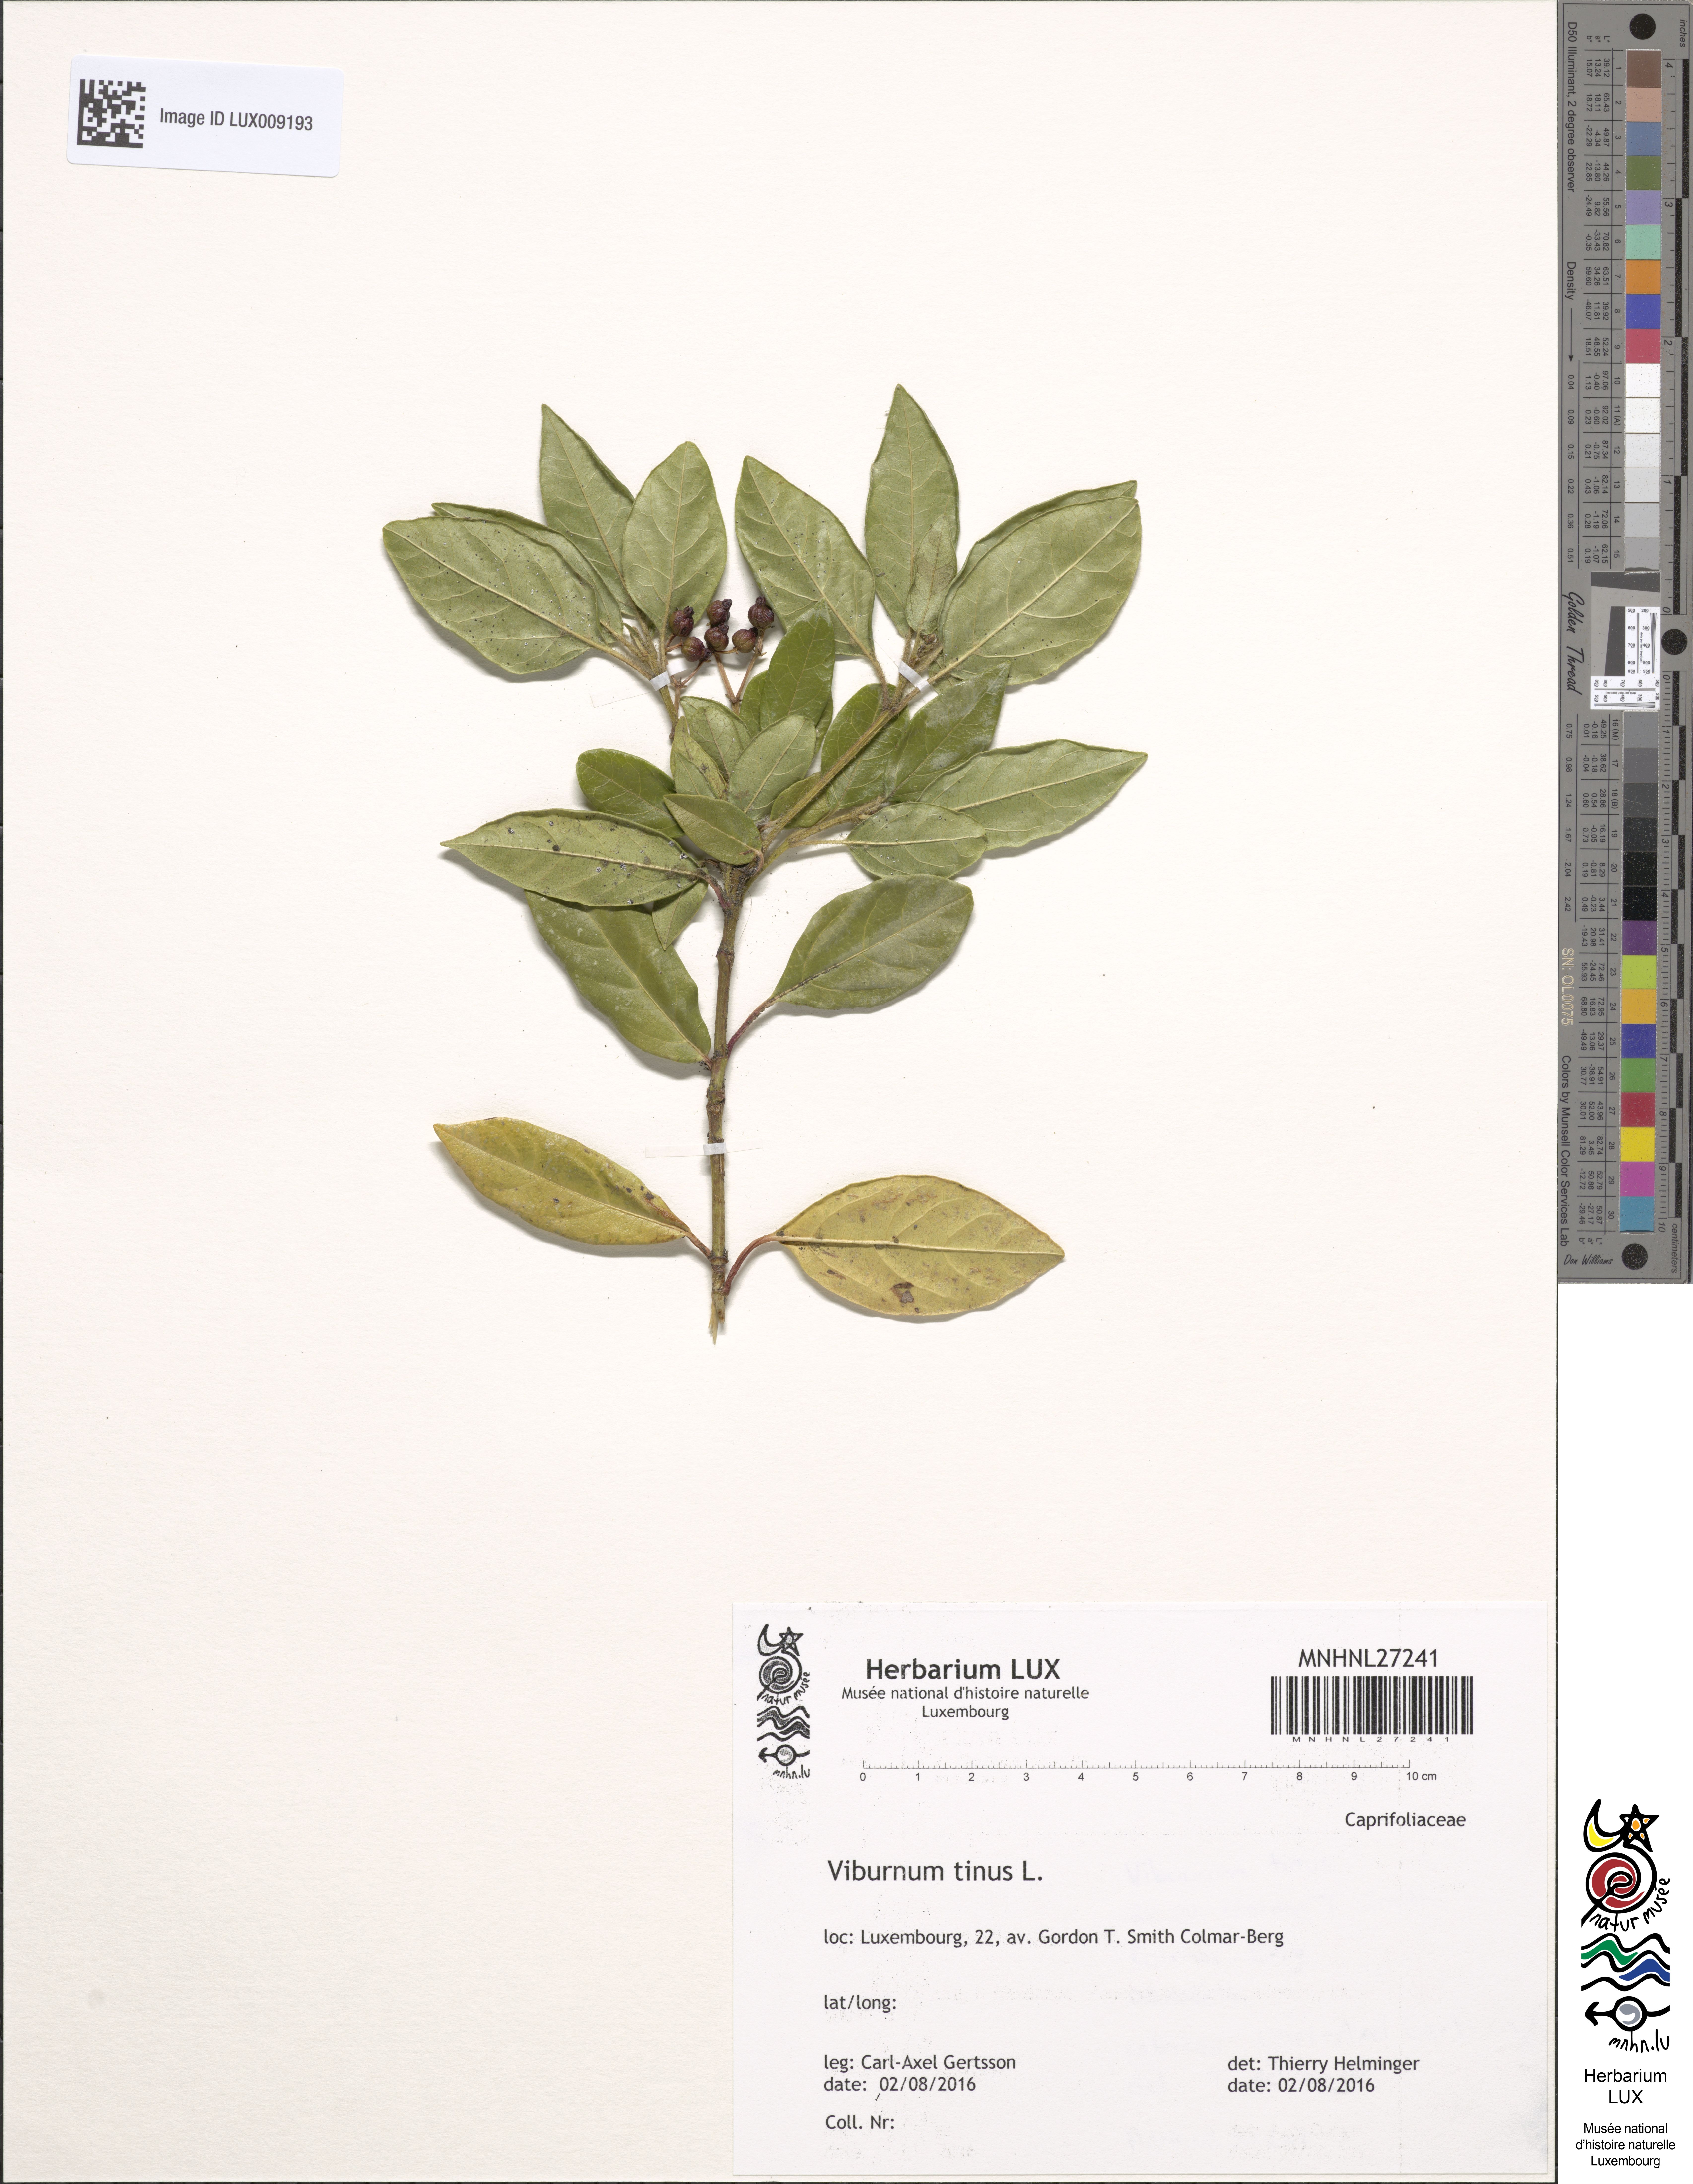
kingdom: Plantae
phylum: Tracheophyta
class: Magnoliopsida
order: Dipsacales
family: Viburnaceae
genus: Viburnum
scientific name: Viburnum tinus
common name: Laurustinus
